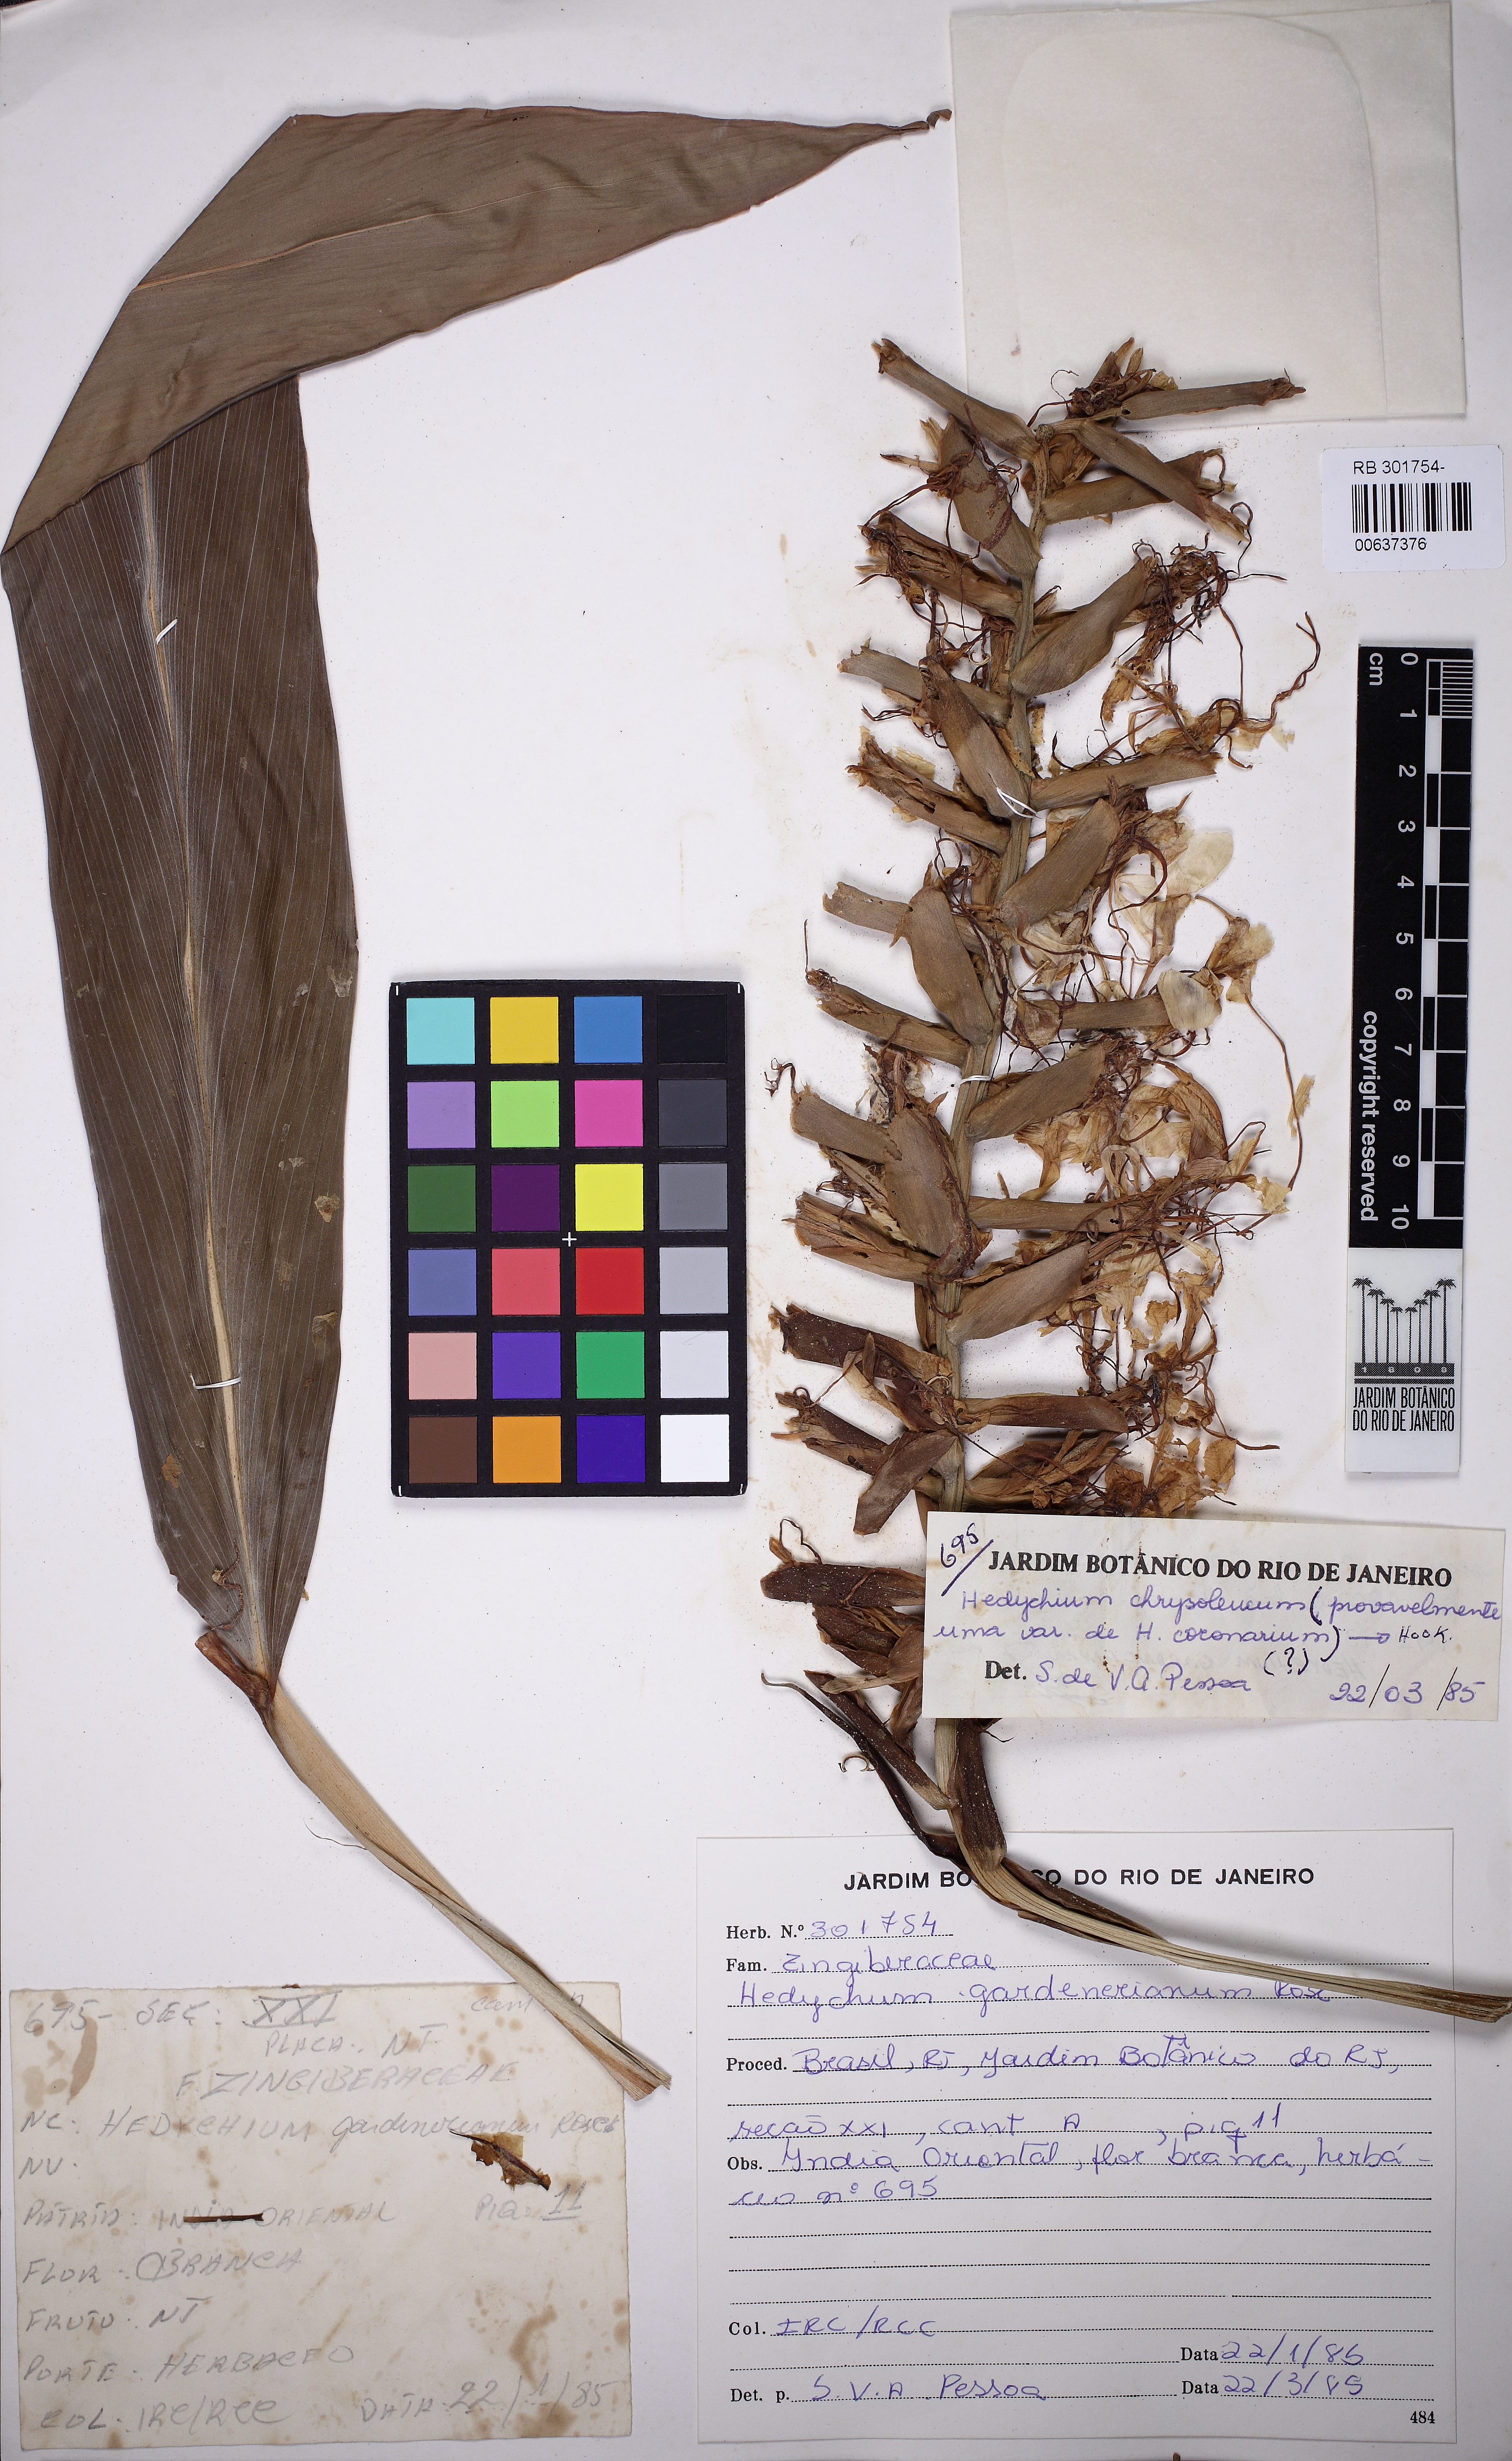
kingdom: Plantae
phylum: Tracheophyta
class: Liliopsida
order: Zingiberales
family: Zingiberaceae
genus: Hedychium
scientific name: Hedychium coronarium
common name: White garland-lily
